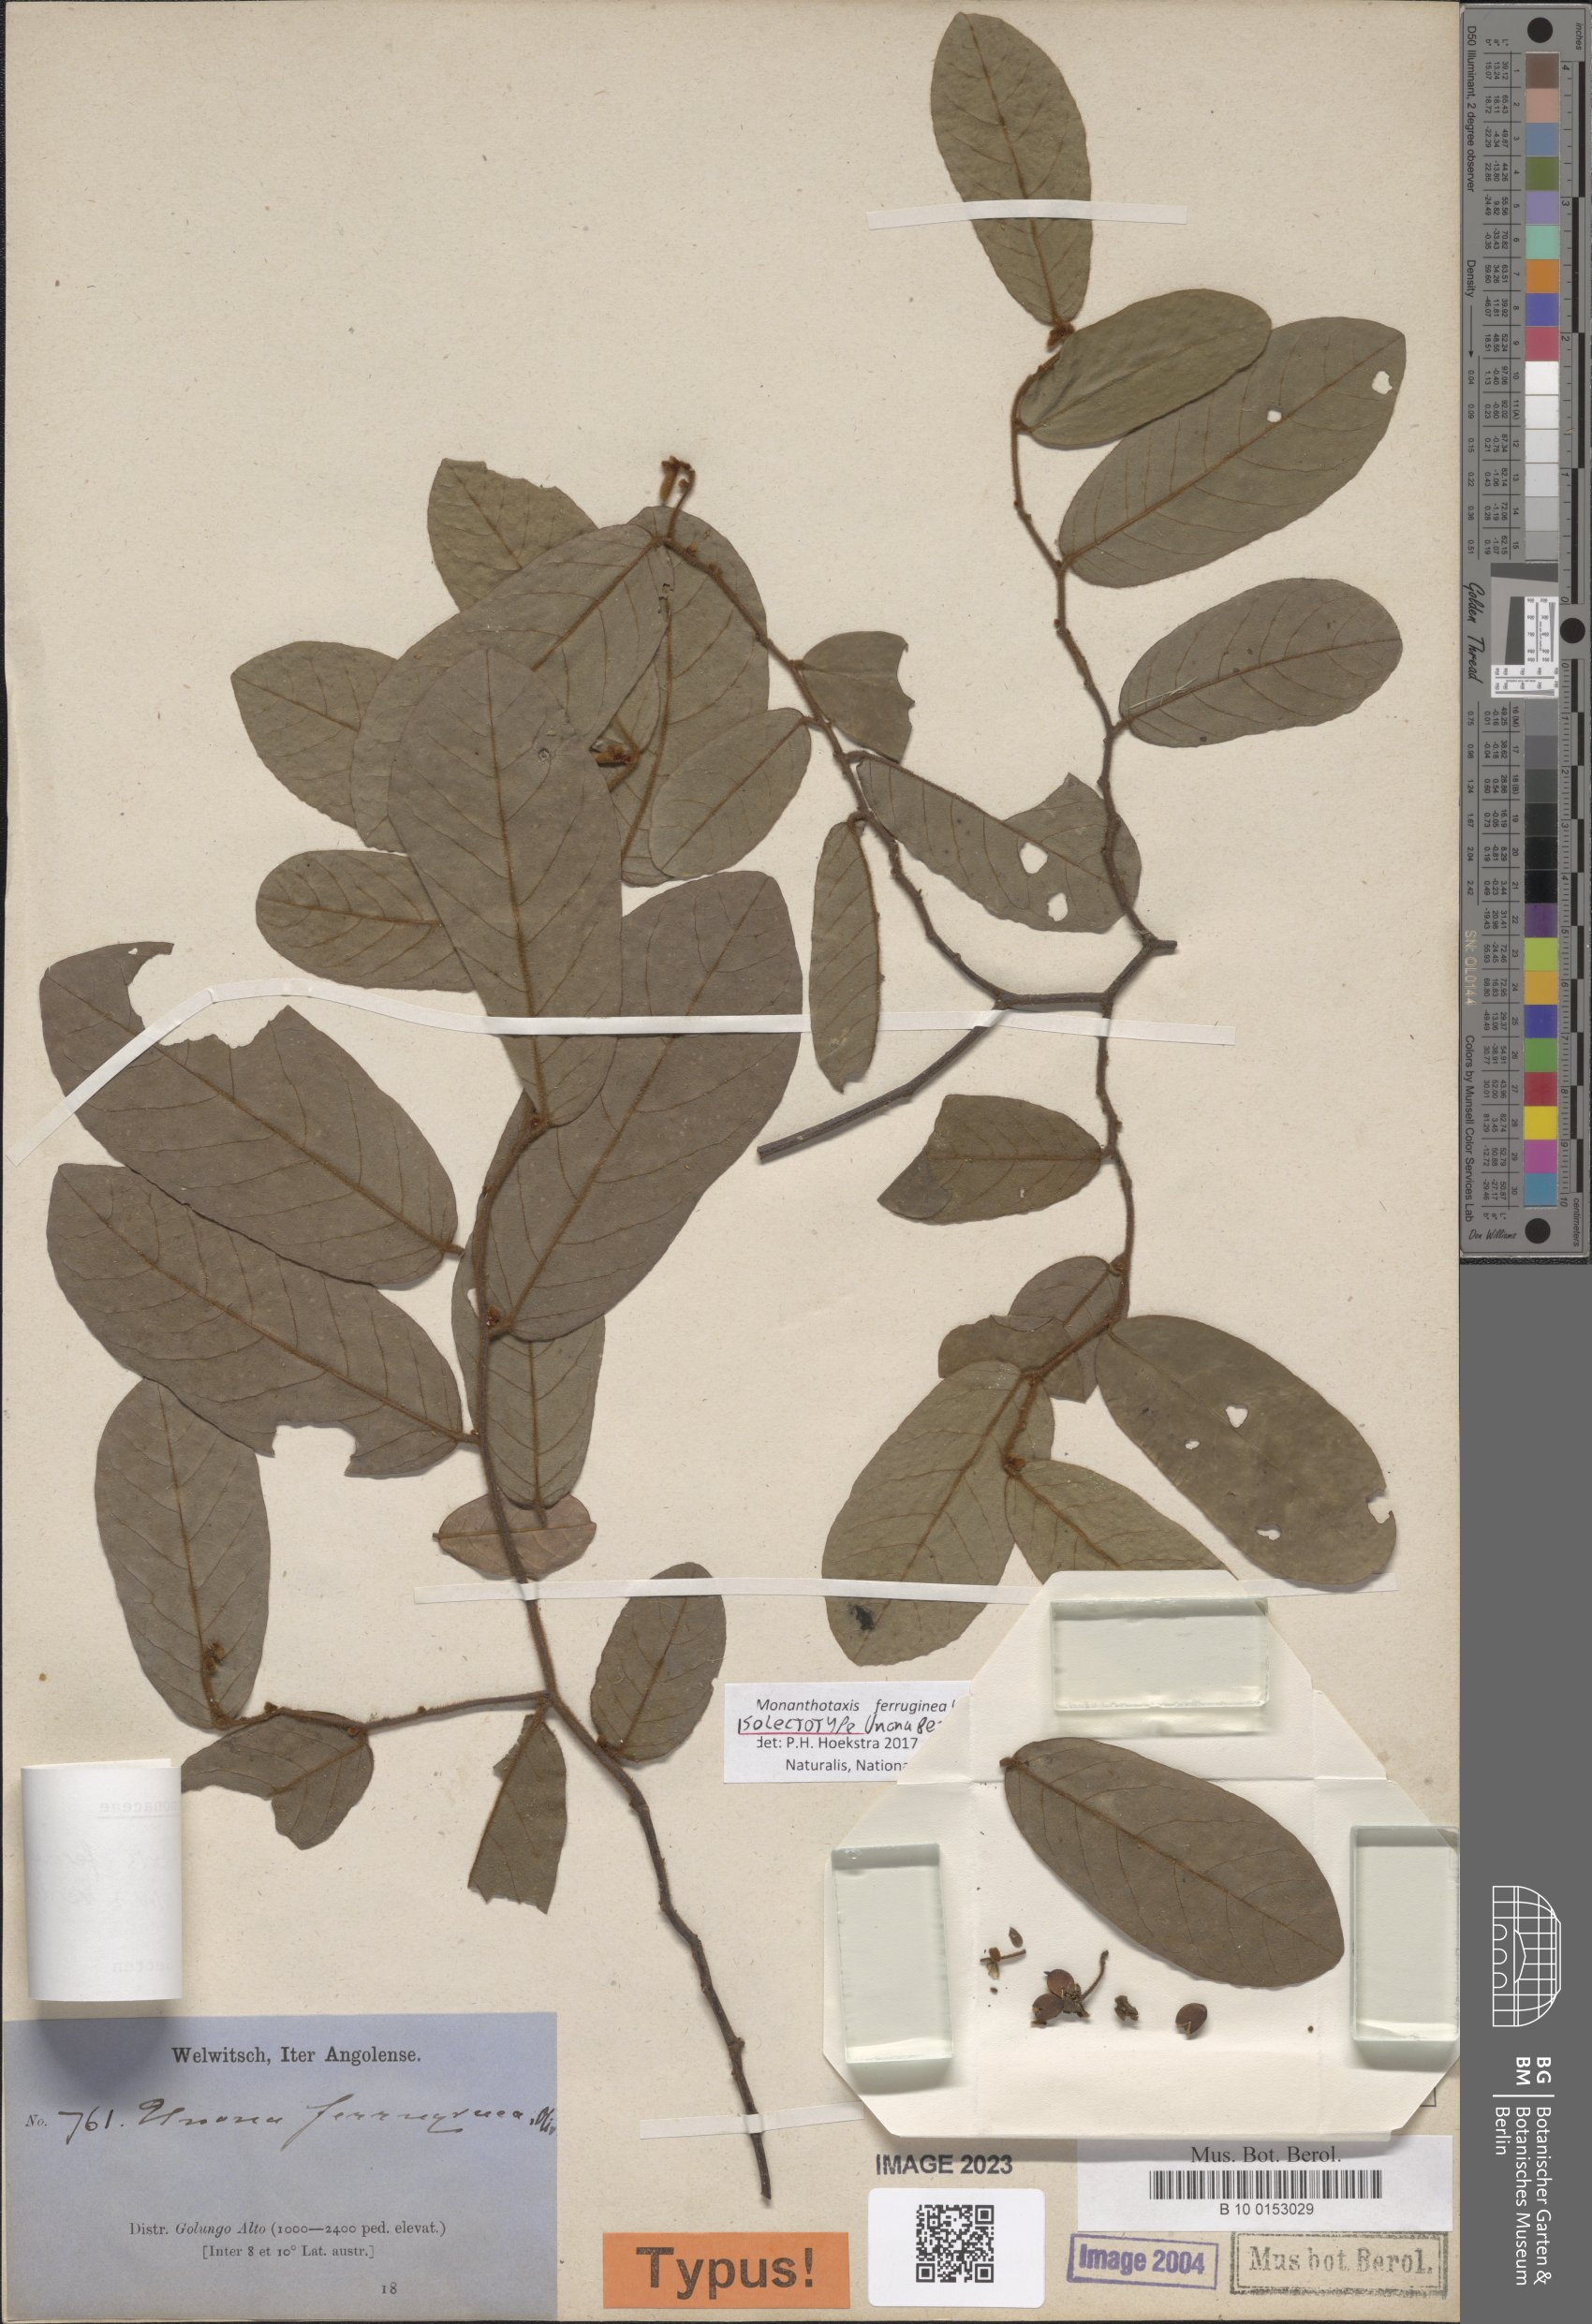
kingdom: Plantae
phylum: Tracheophyta
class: Magnoliopsida
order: Magnoliales
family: Annonaceae
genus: Monanthotaxis
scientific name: Monanthotaxis ferruginea
